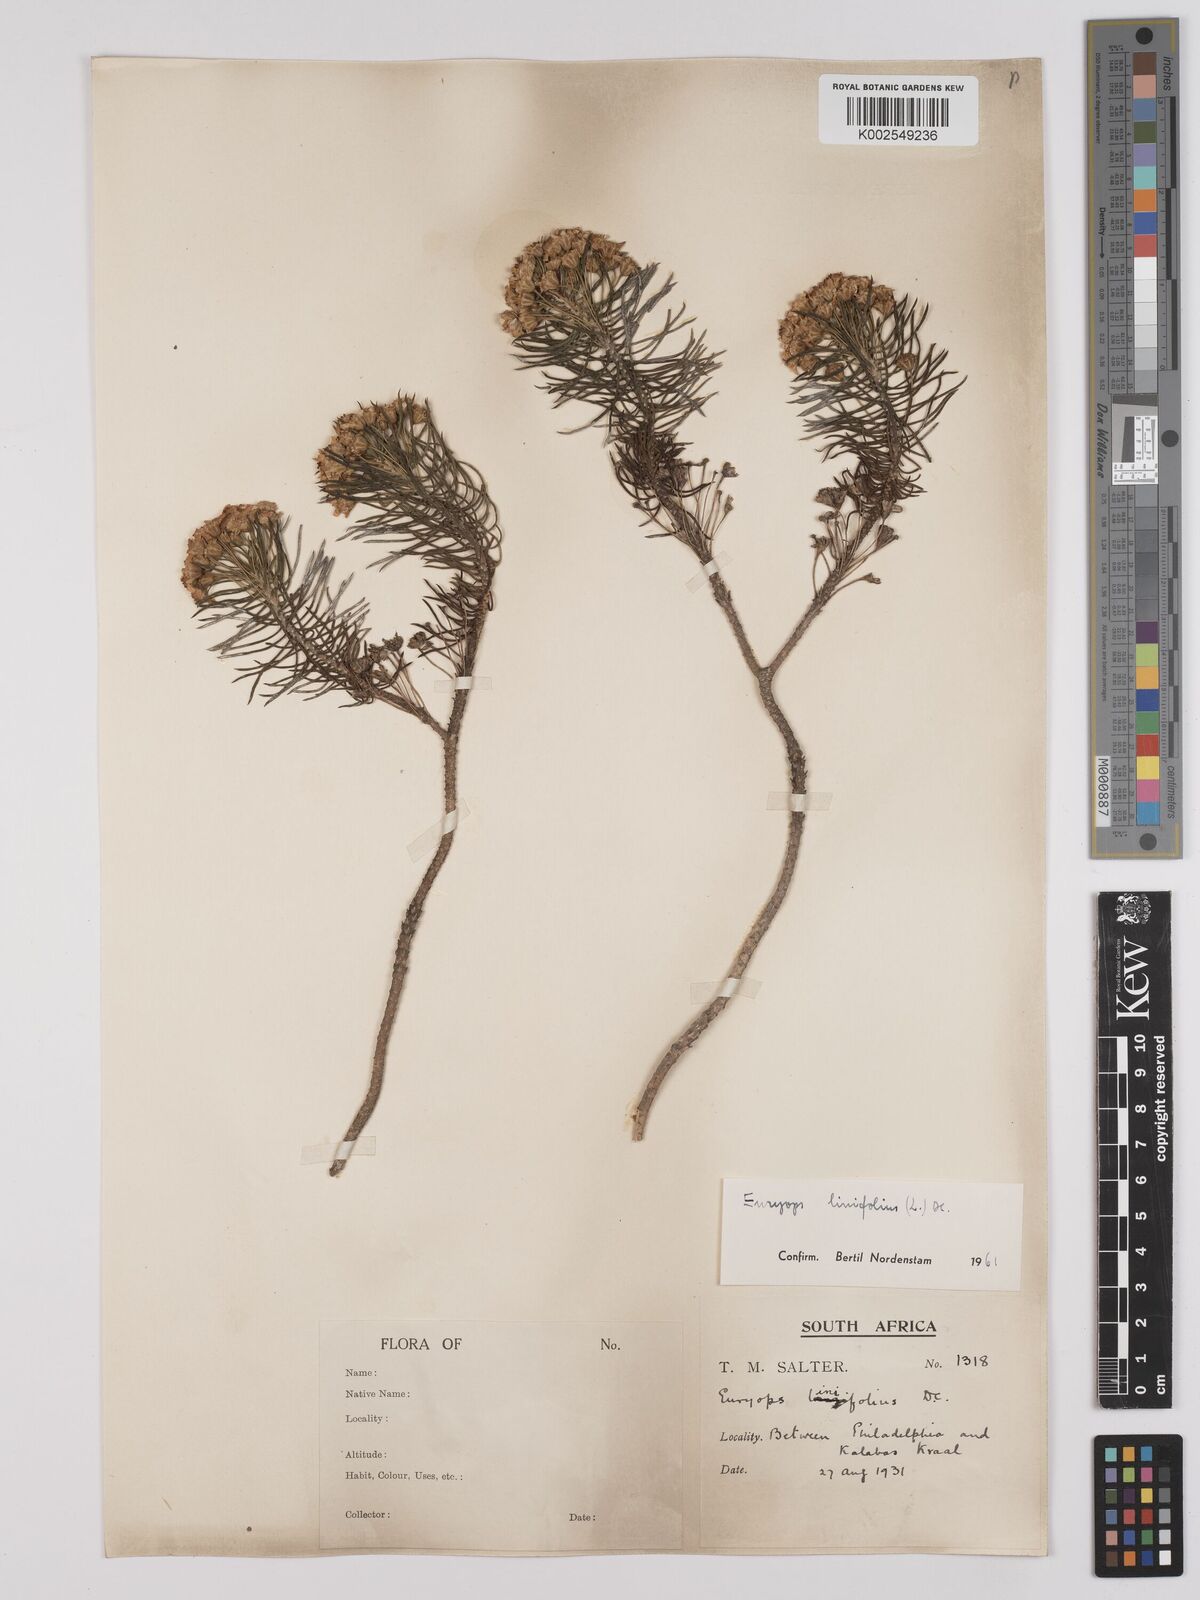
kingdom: Plantae
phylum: Tracheophyta
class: Magnoliopsida
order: Asterales
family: Asteraceae
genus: Euryops
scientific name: Euryops linifolius
